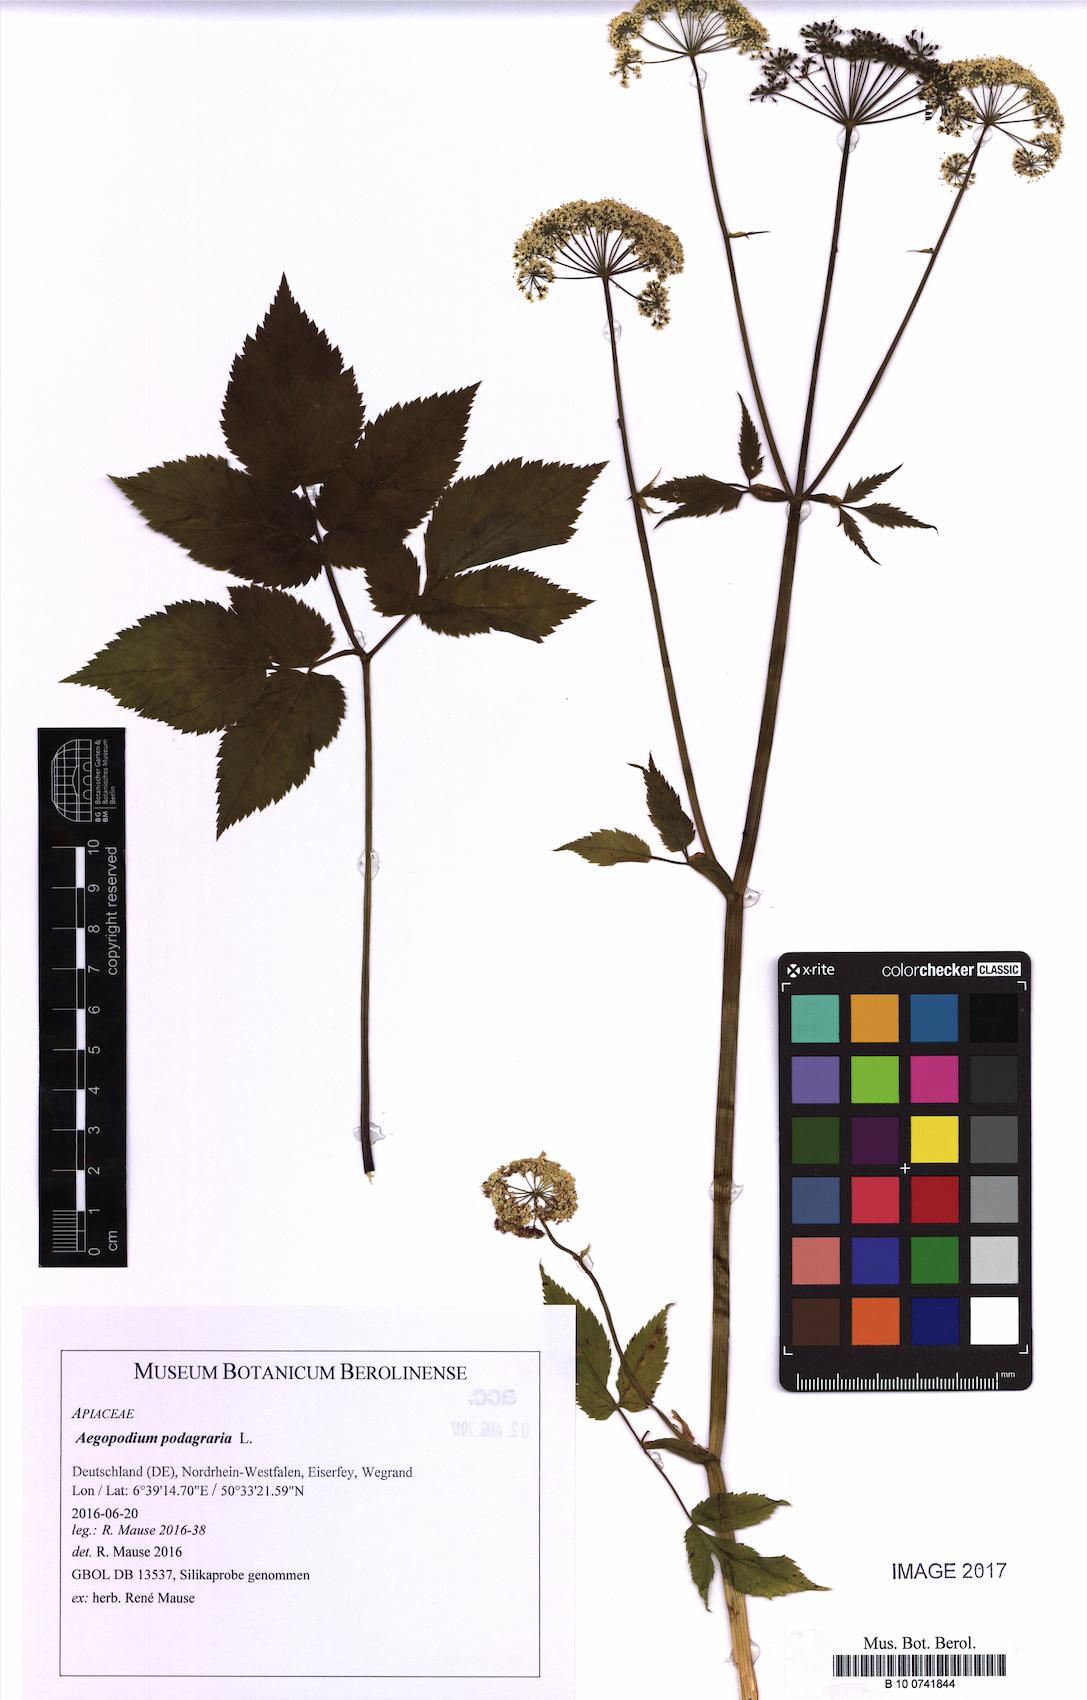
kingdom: Plantae
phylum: Tracheophyta
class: Magnoliopsida
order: Apiales
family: Apiaceae
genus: Aegopodium
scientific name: Aegopodium podagraria
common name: Ground-elder
